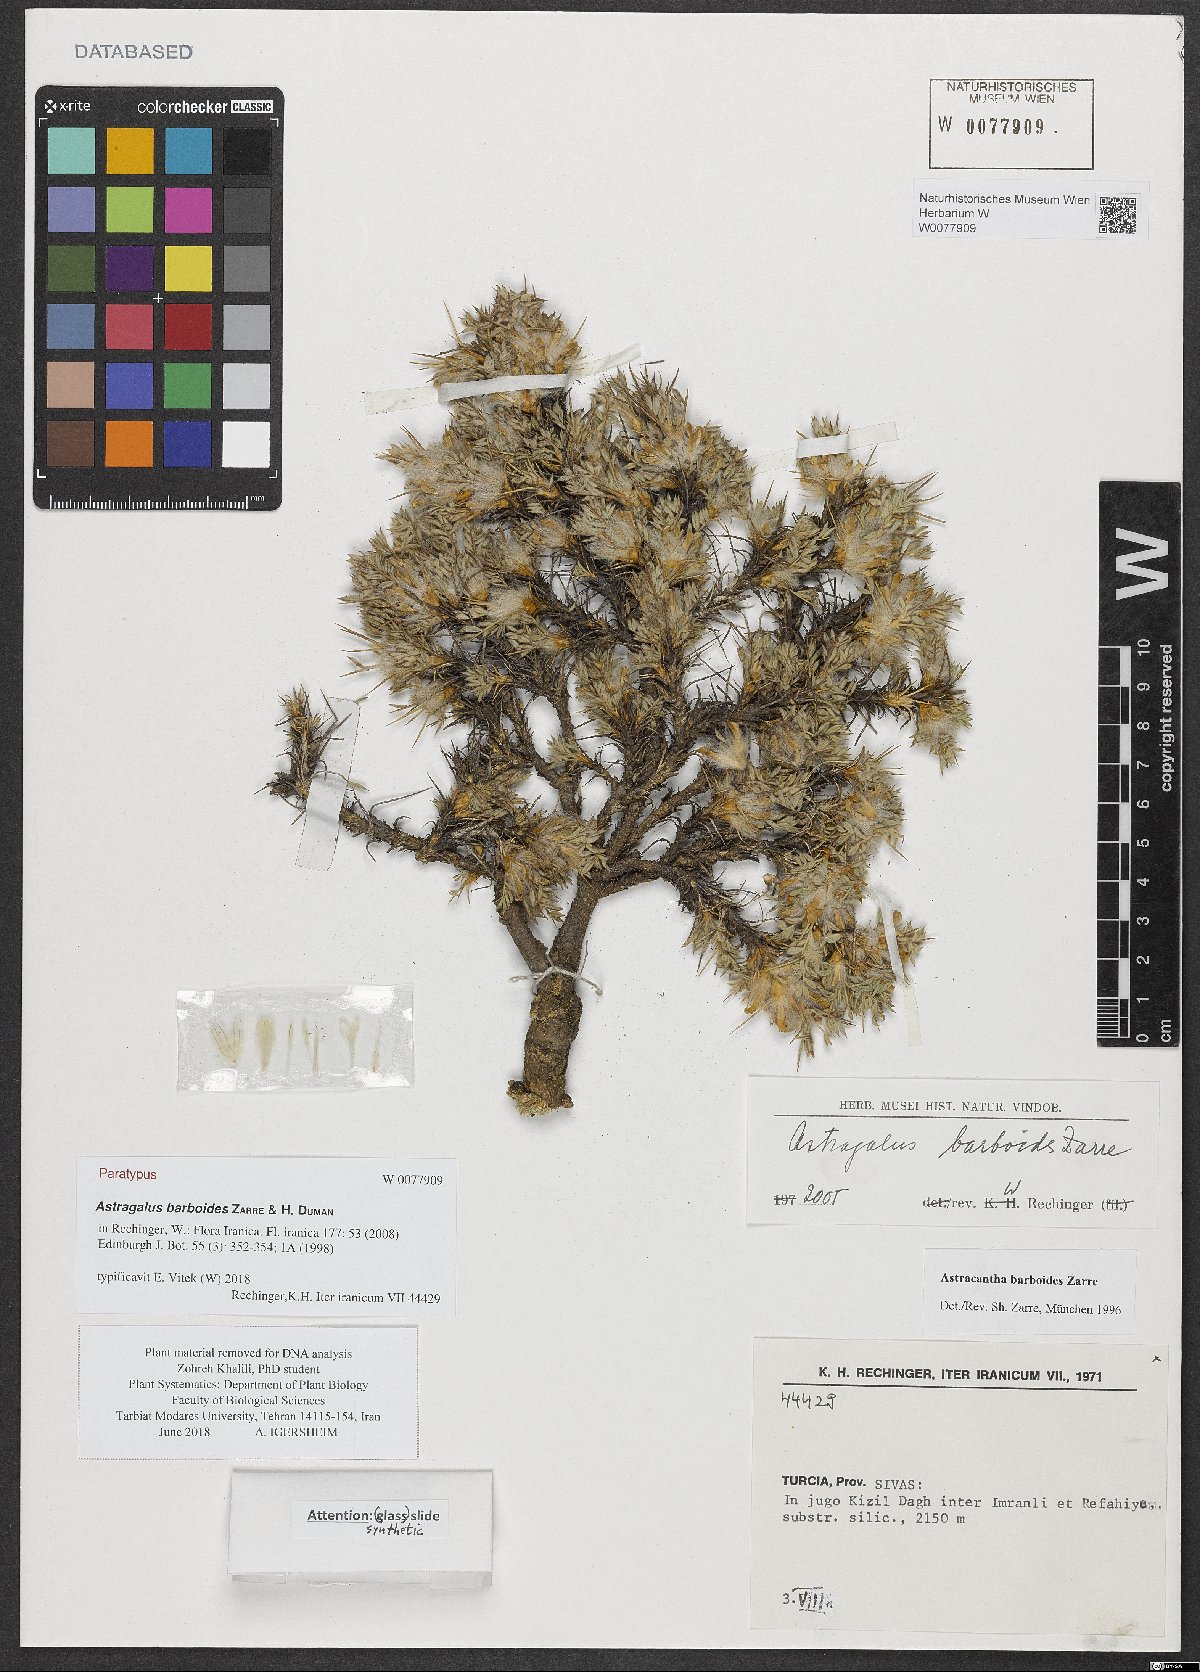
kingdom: Plantae
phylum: Tracheophyta
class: Magnoliopsida
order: Fabales
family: Fabaceae
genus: Astragalus
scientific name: Astragalus barboides
